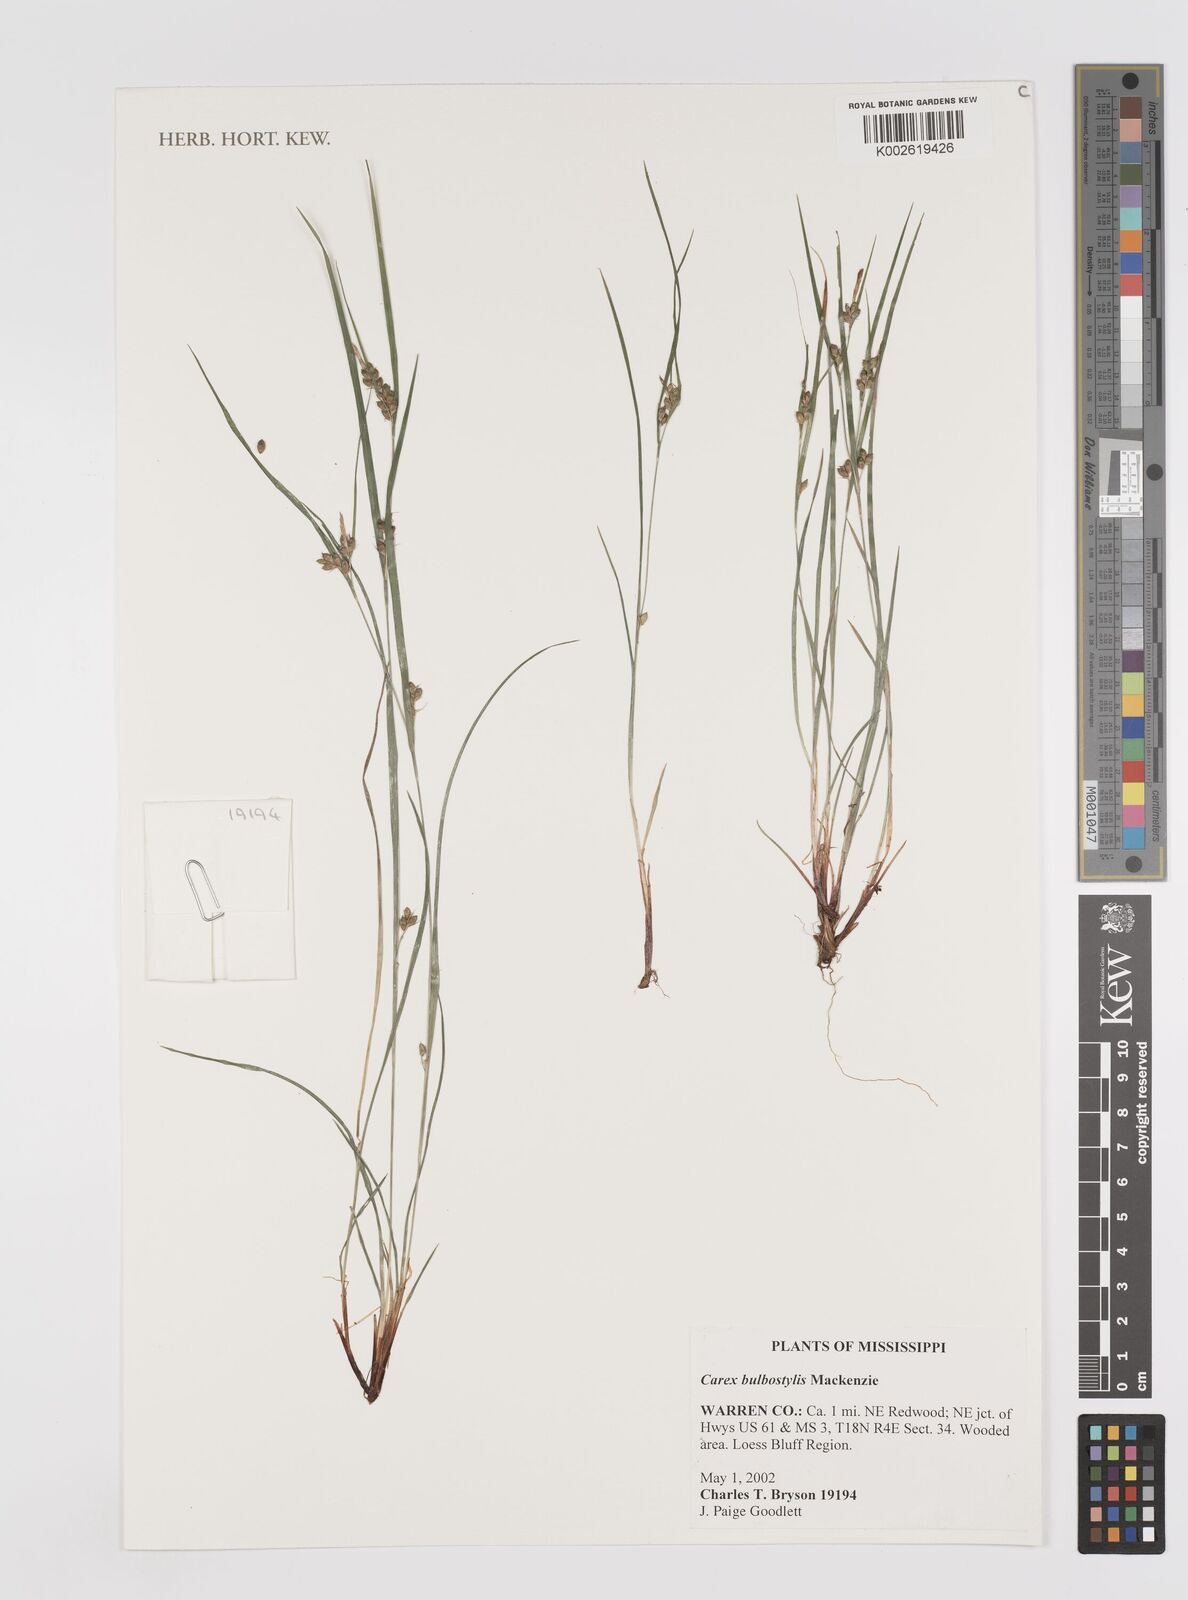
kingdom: Plantae
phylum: Tracheophyta
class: Liliopsida
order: Poales
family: Cyperaceae
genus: Carex
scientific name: Carex bulbostylis
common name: Eastern narrowleaf sedge
